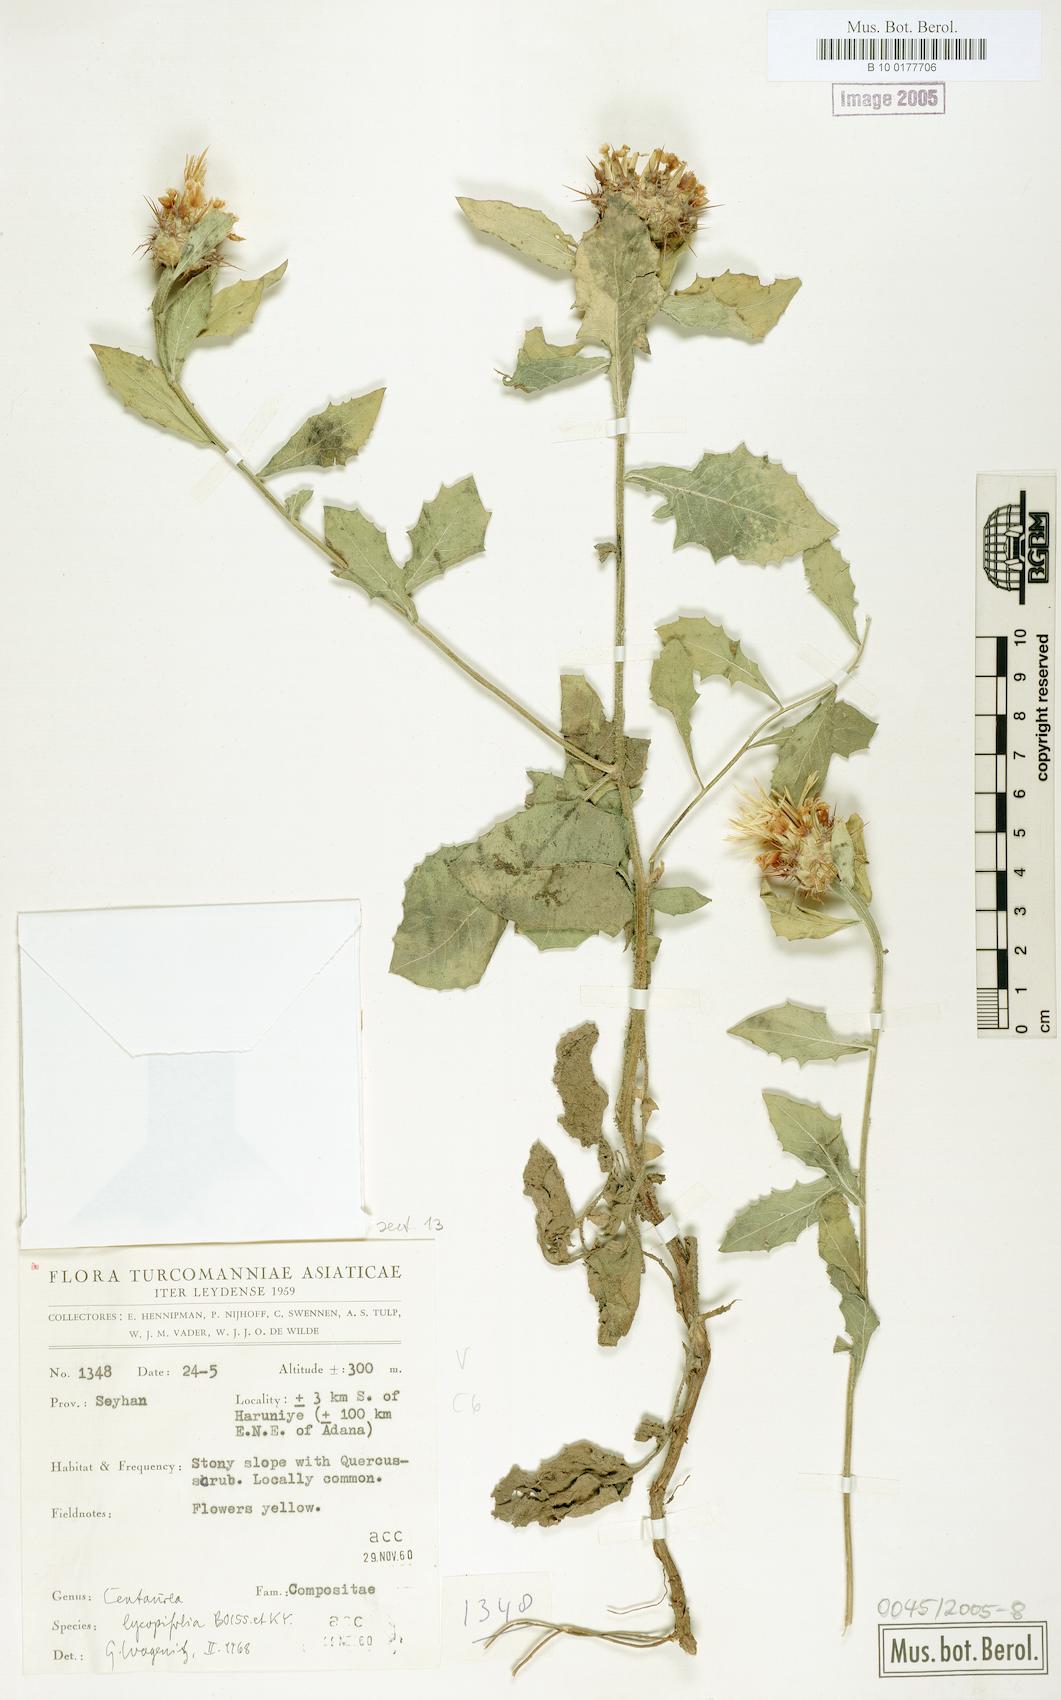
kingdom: Plantae
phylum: Tracheophyta
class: Magnoliopsida
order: Asterales
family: Asteraceae
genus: Centaurea
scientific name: Centaurea lycopifolia
